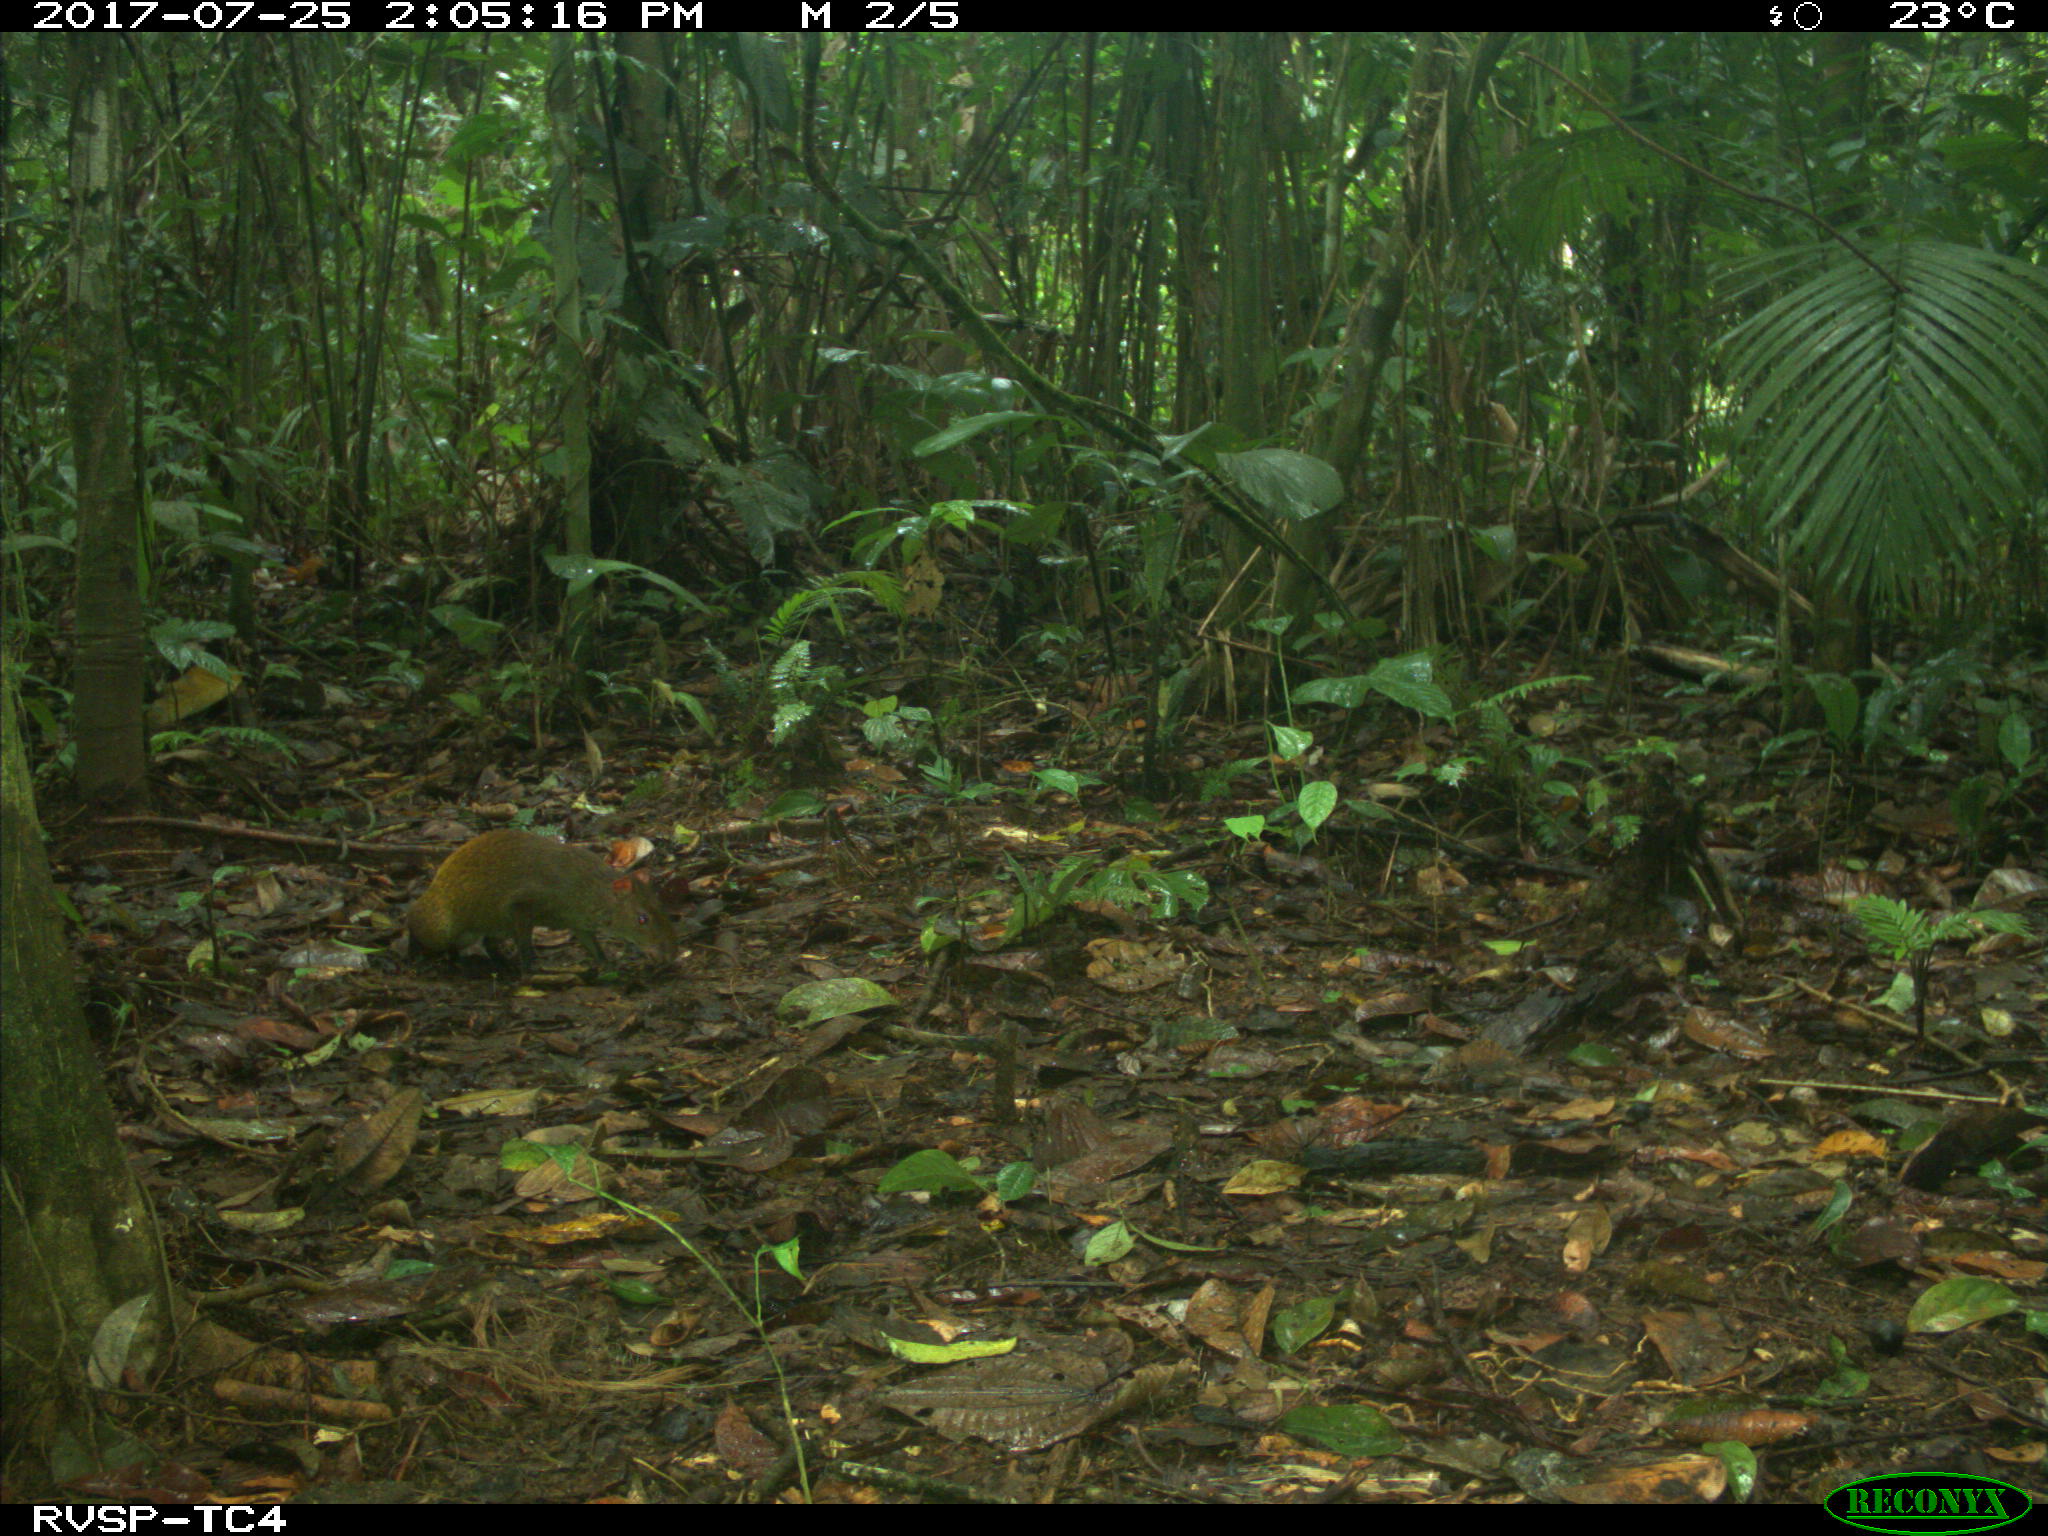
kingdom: Animalia
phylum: Chordata
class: Mammalia
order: Rodentia
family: Dasyproctidae
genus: Dasyprocta
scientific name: Dasyprocta punctata
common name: Central american agouti
